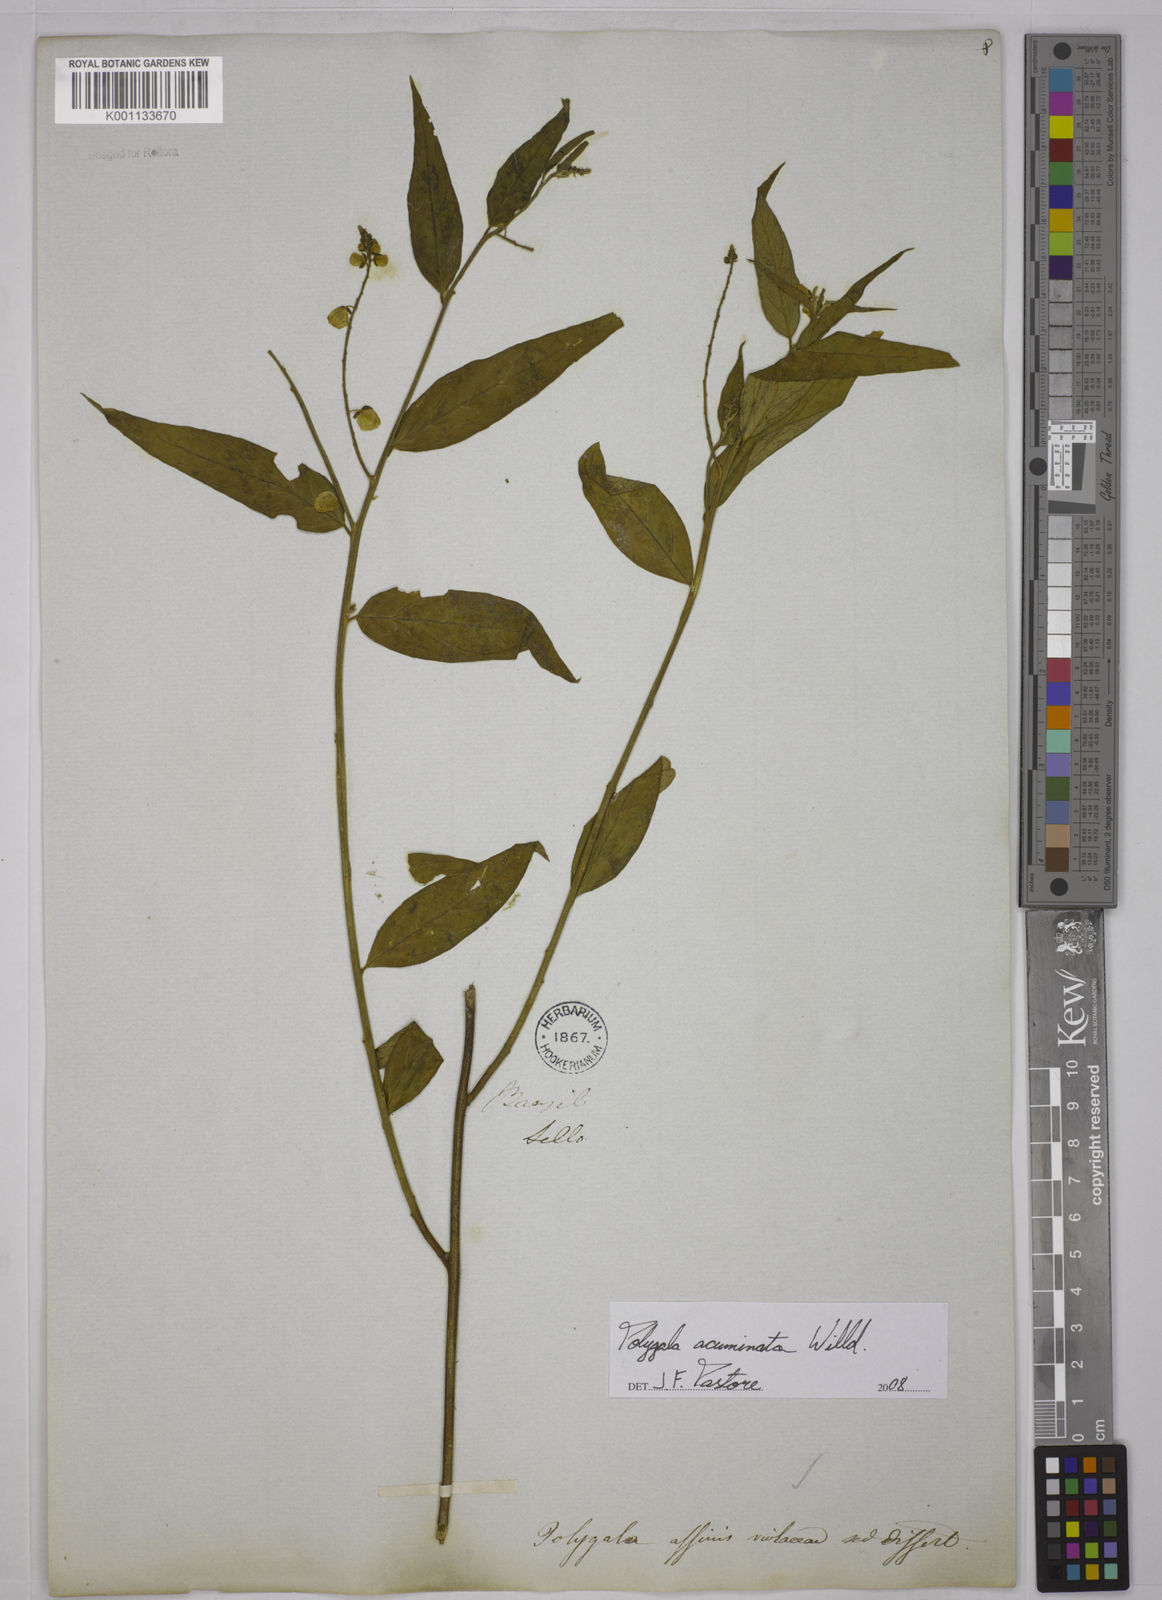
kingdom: Plantae
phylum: Tracheophyta
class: Magnoliopsida
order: Fabales
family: Polygalaceae
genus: Asemeia
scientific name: Asemeia acuminata
